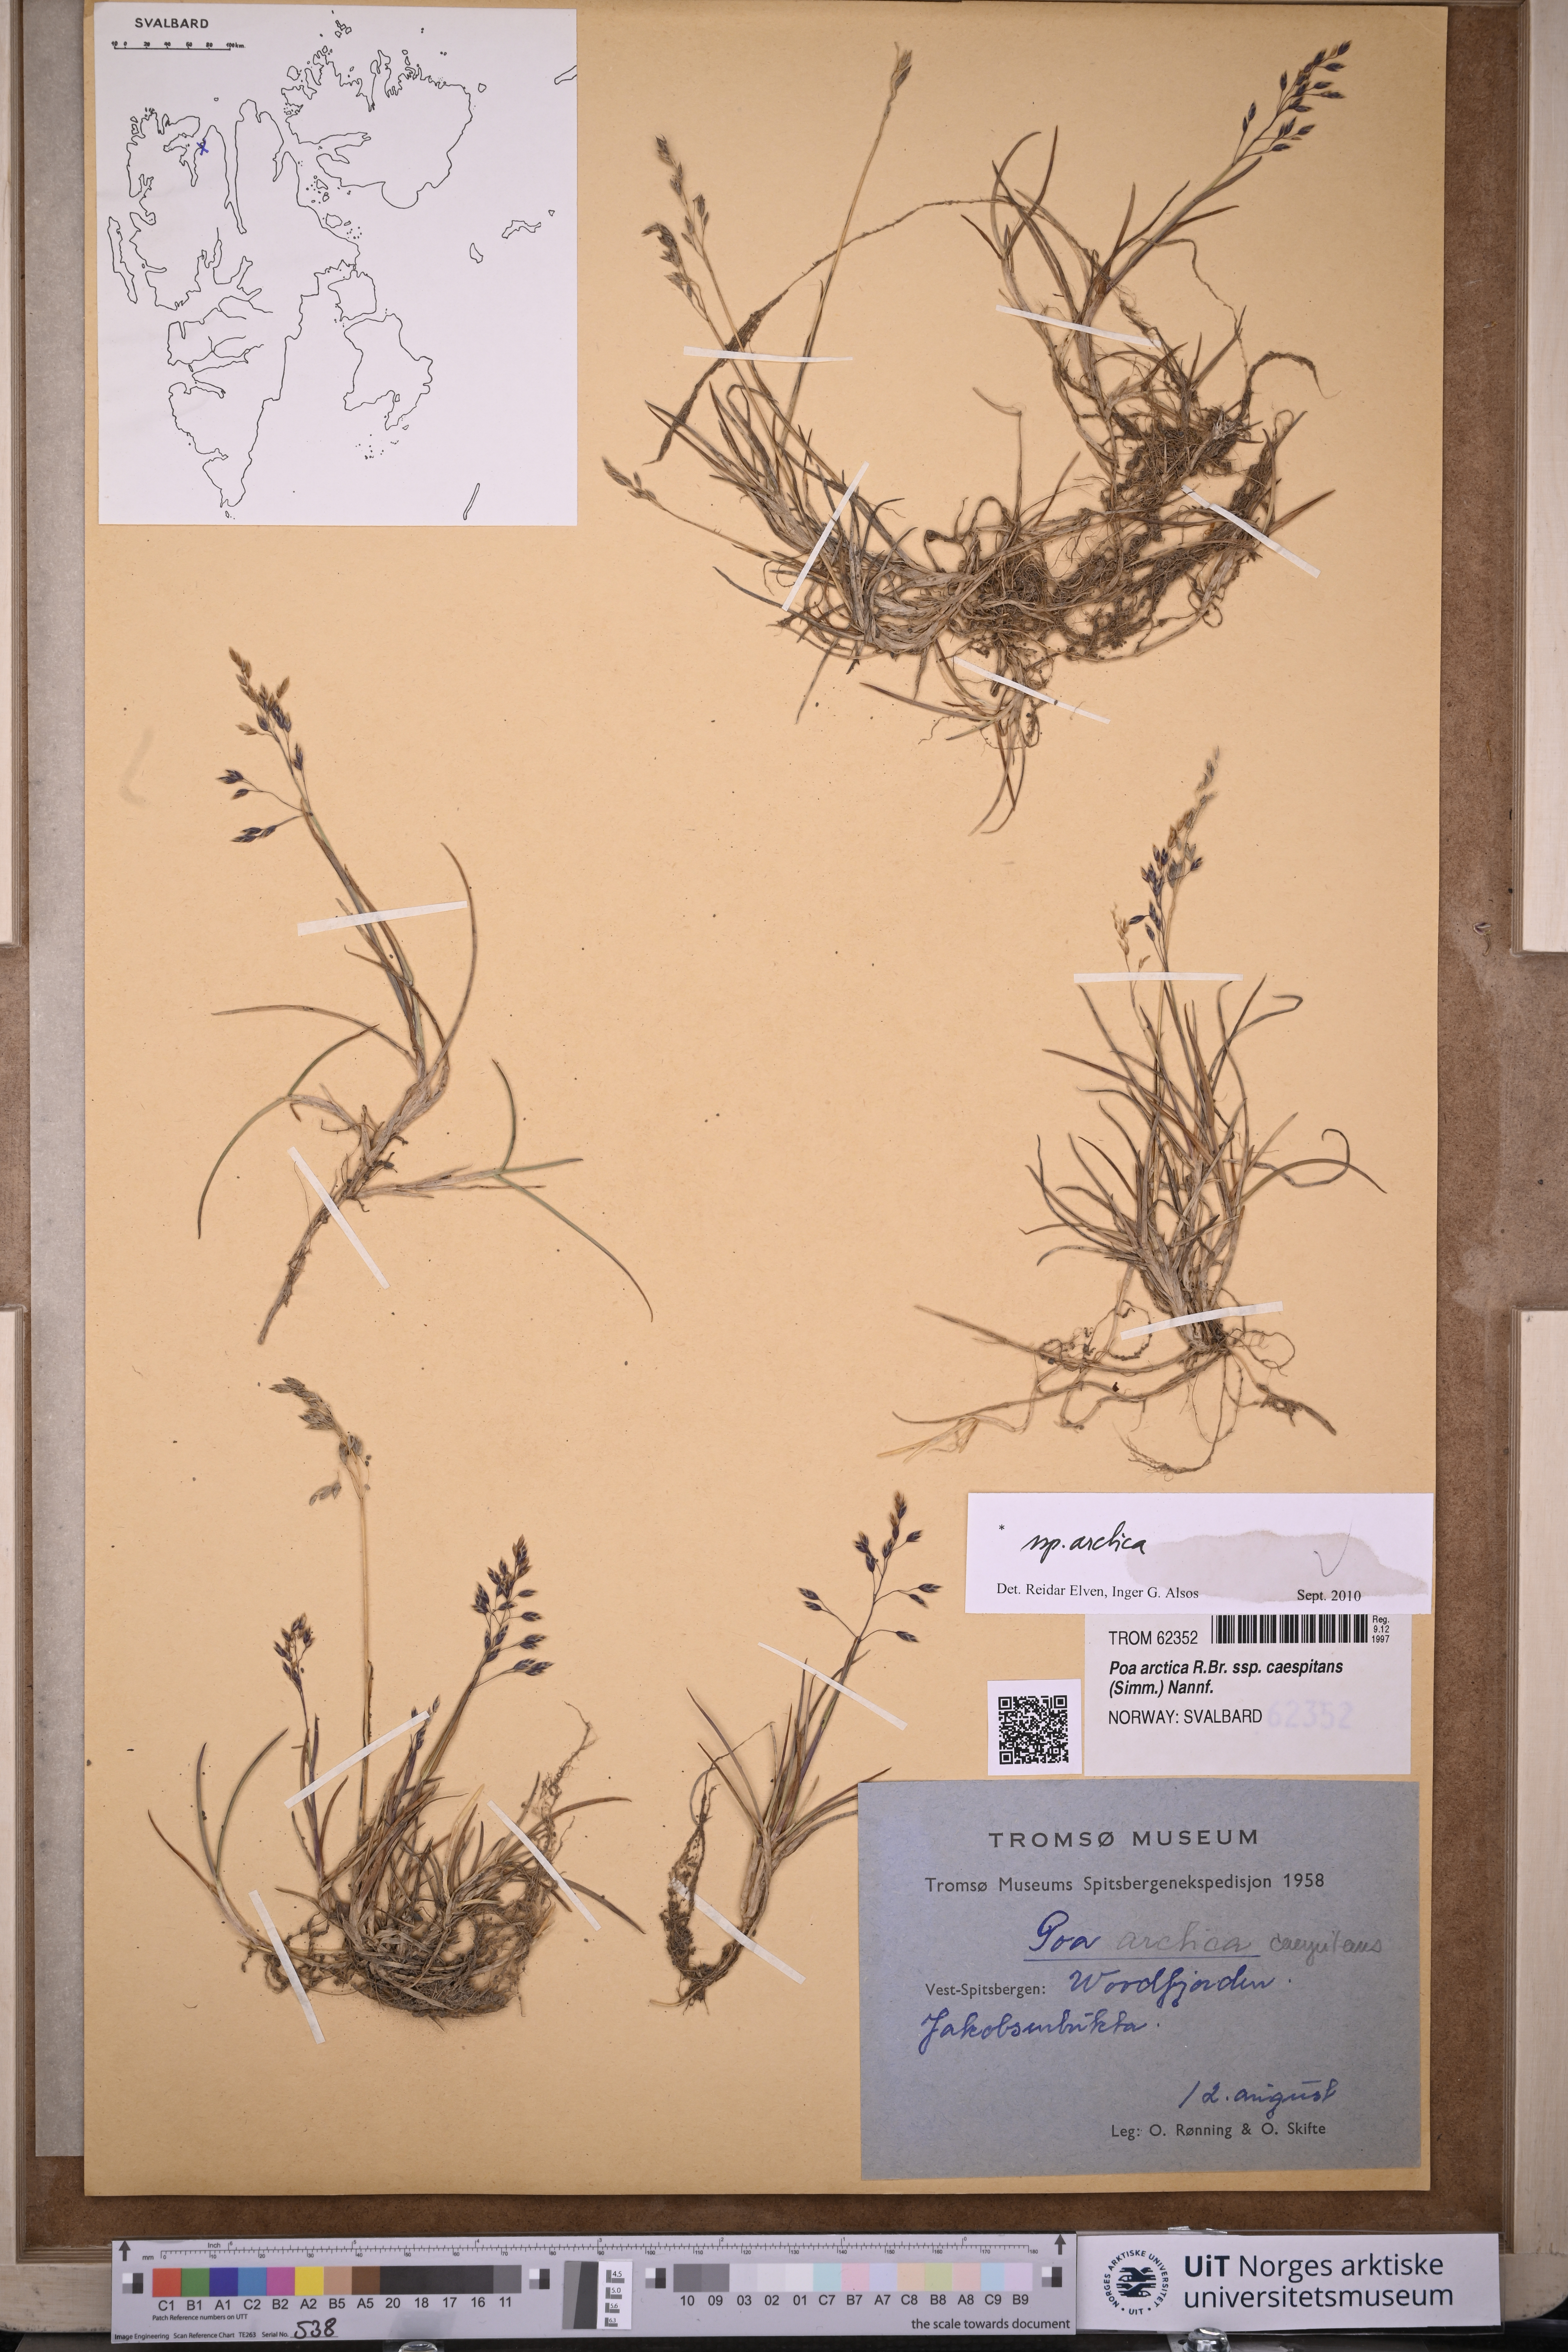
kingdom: Plantae
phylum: Tracheophyta
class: Liliopsida
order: Poales
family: Poaceae
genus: Poa
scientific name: Poa arctica
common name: Arctic bluegrass
